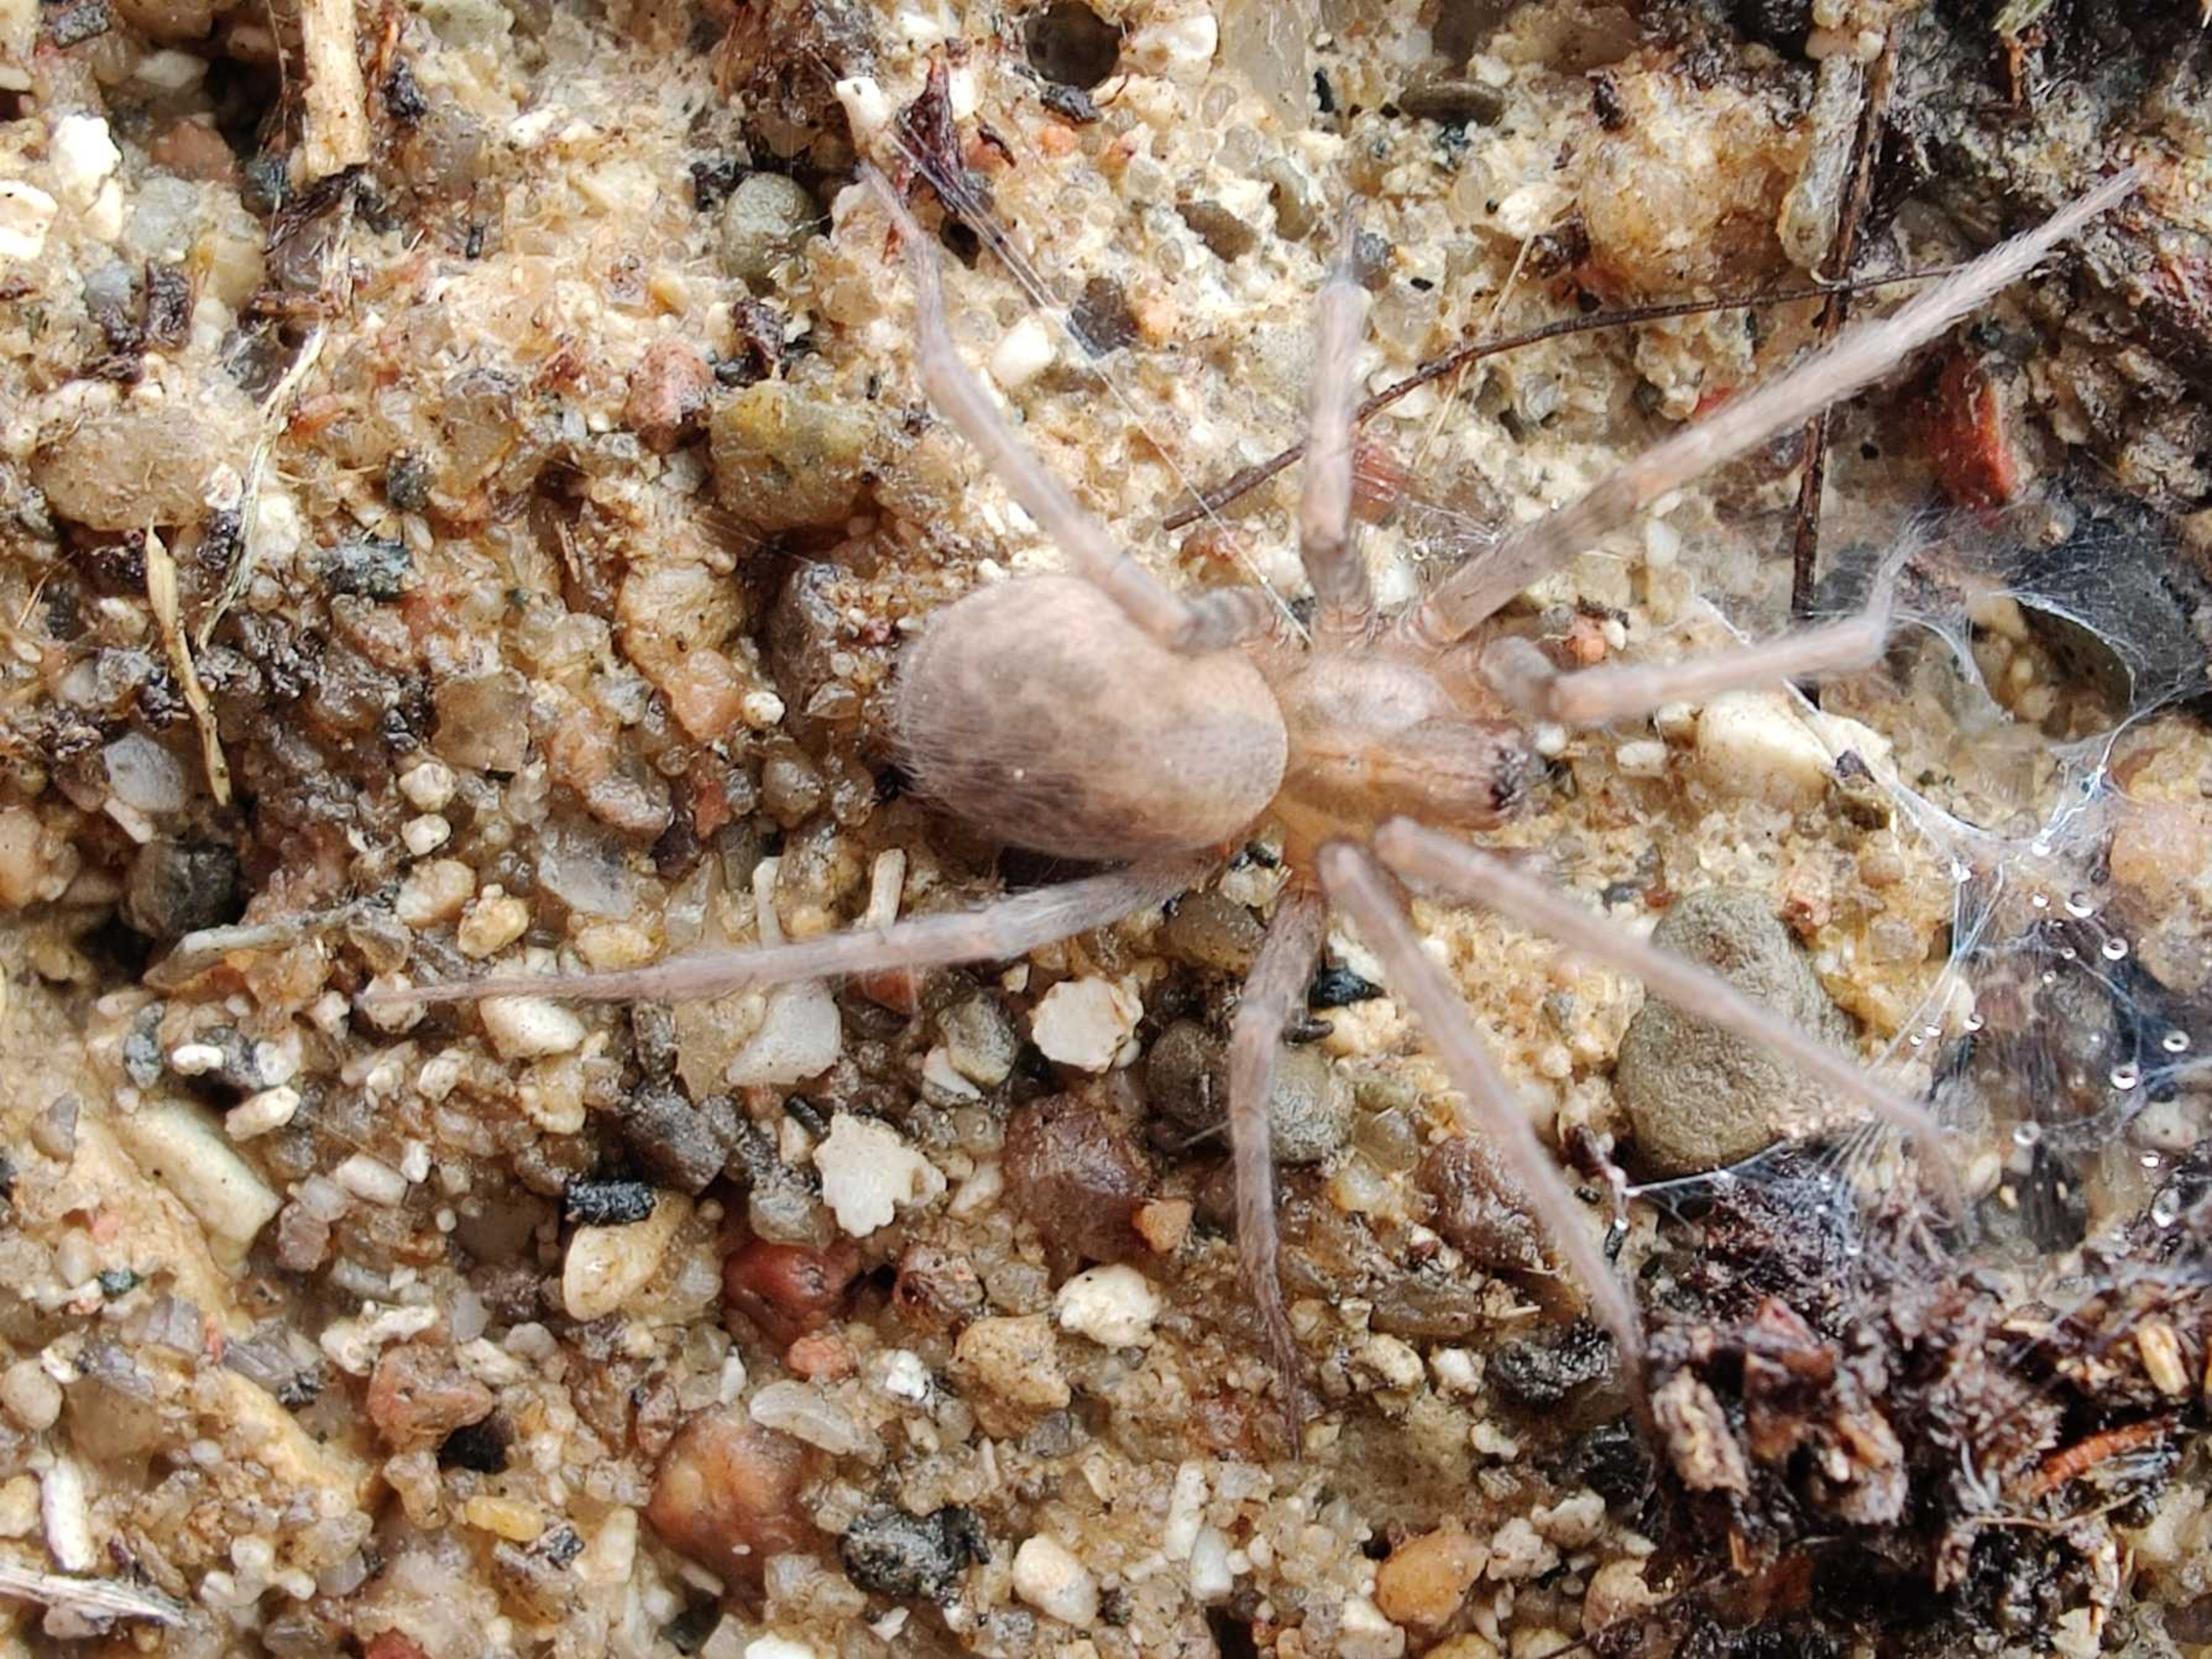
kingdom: Animalia
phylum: Arthropoda
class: Arachnida
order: Araneae
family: Agelenidae
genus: Tegenaria
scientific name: Tegenaria domestica
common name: Lille husedderkop
